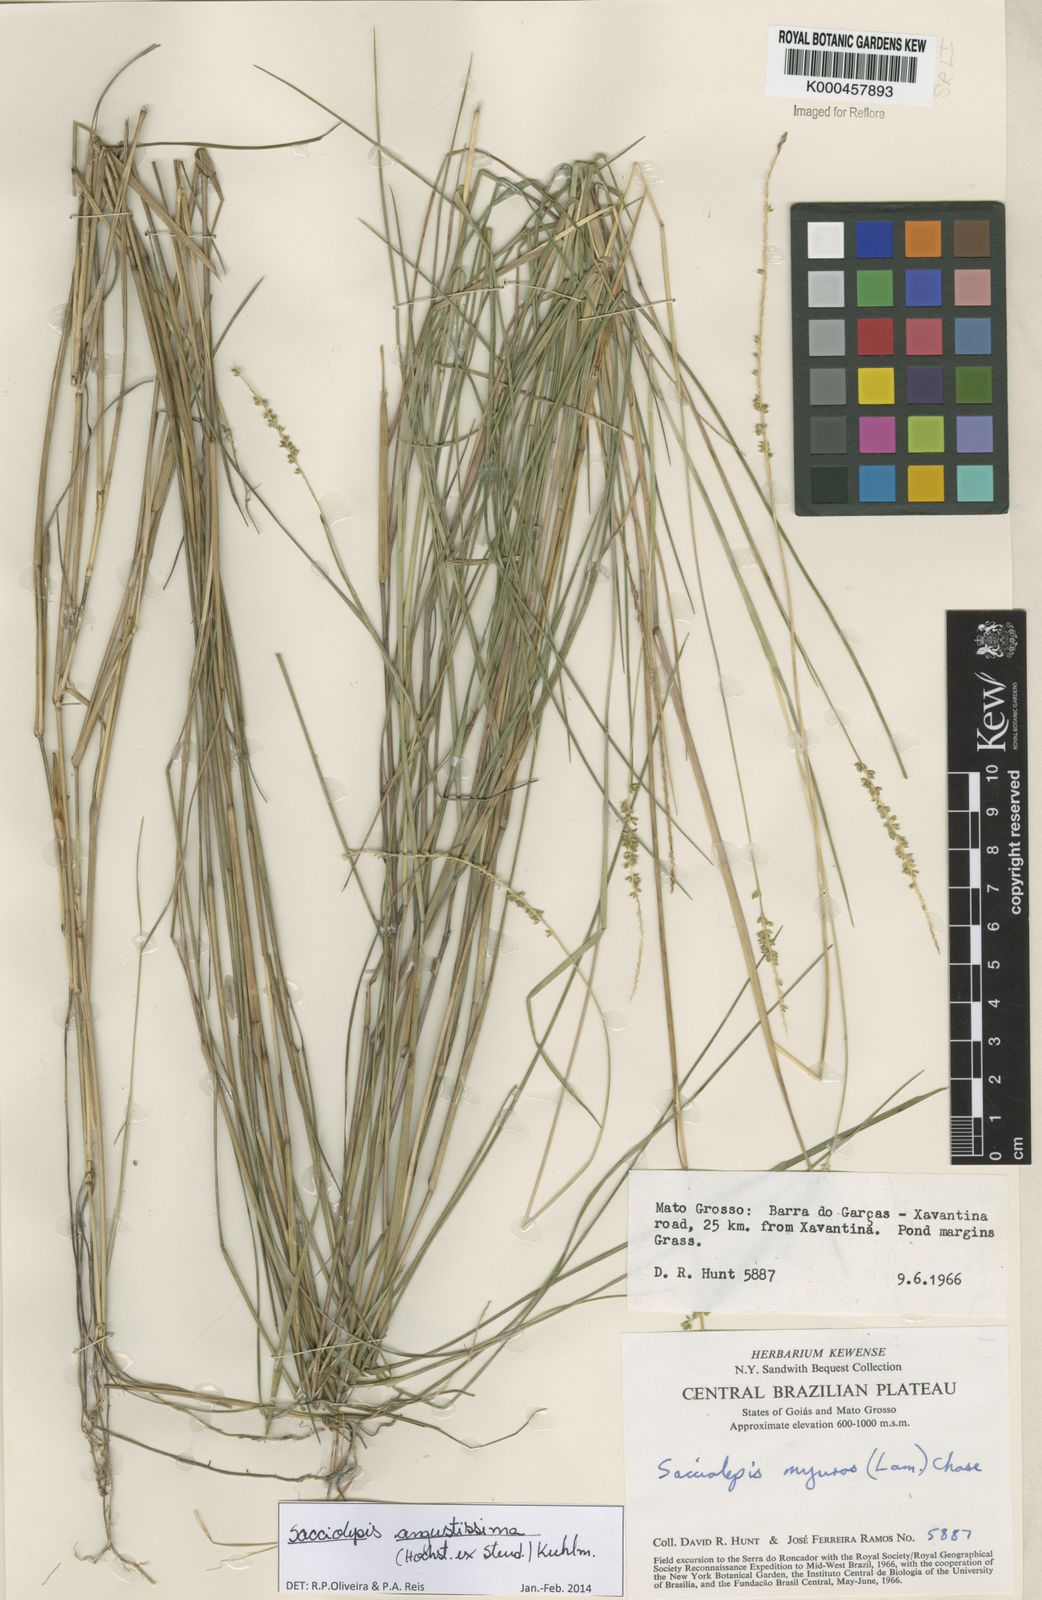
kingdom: Plantae
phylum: Tracheophyta
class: Liliopsida
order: Poales
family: Poaceae
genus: Sacciolepis
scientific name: Sacciolepis angustissima
